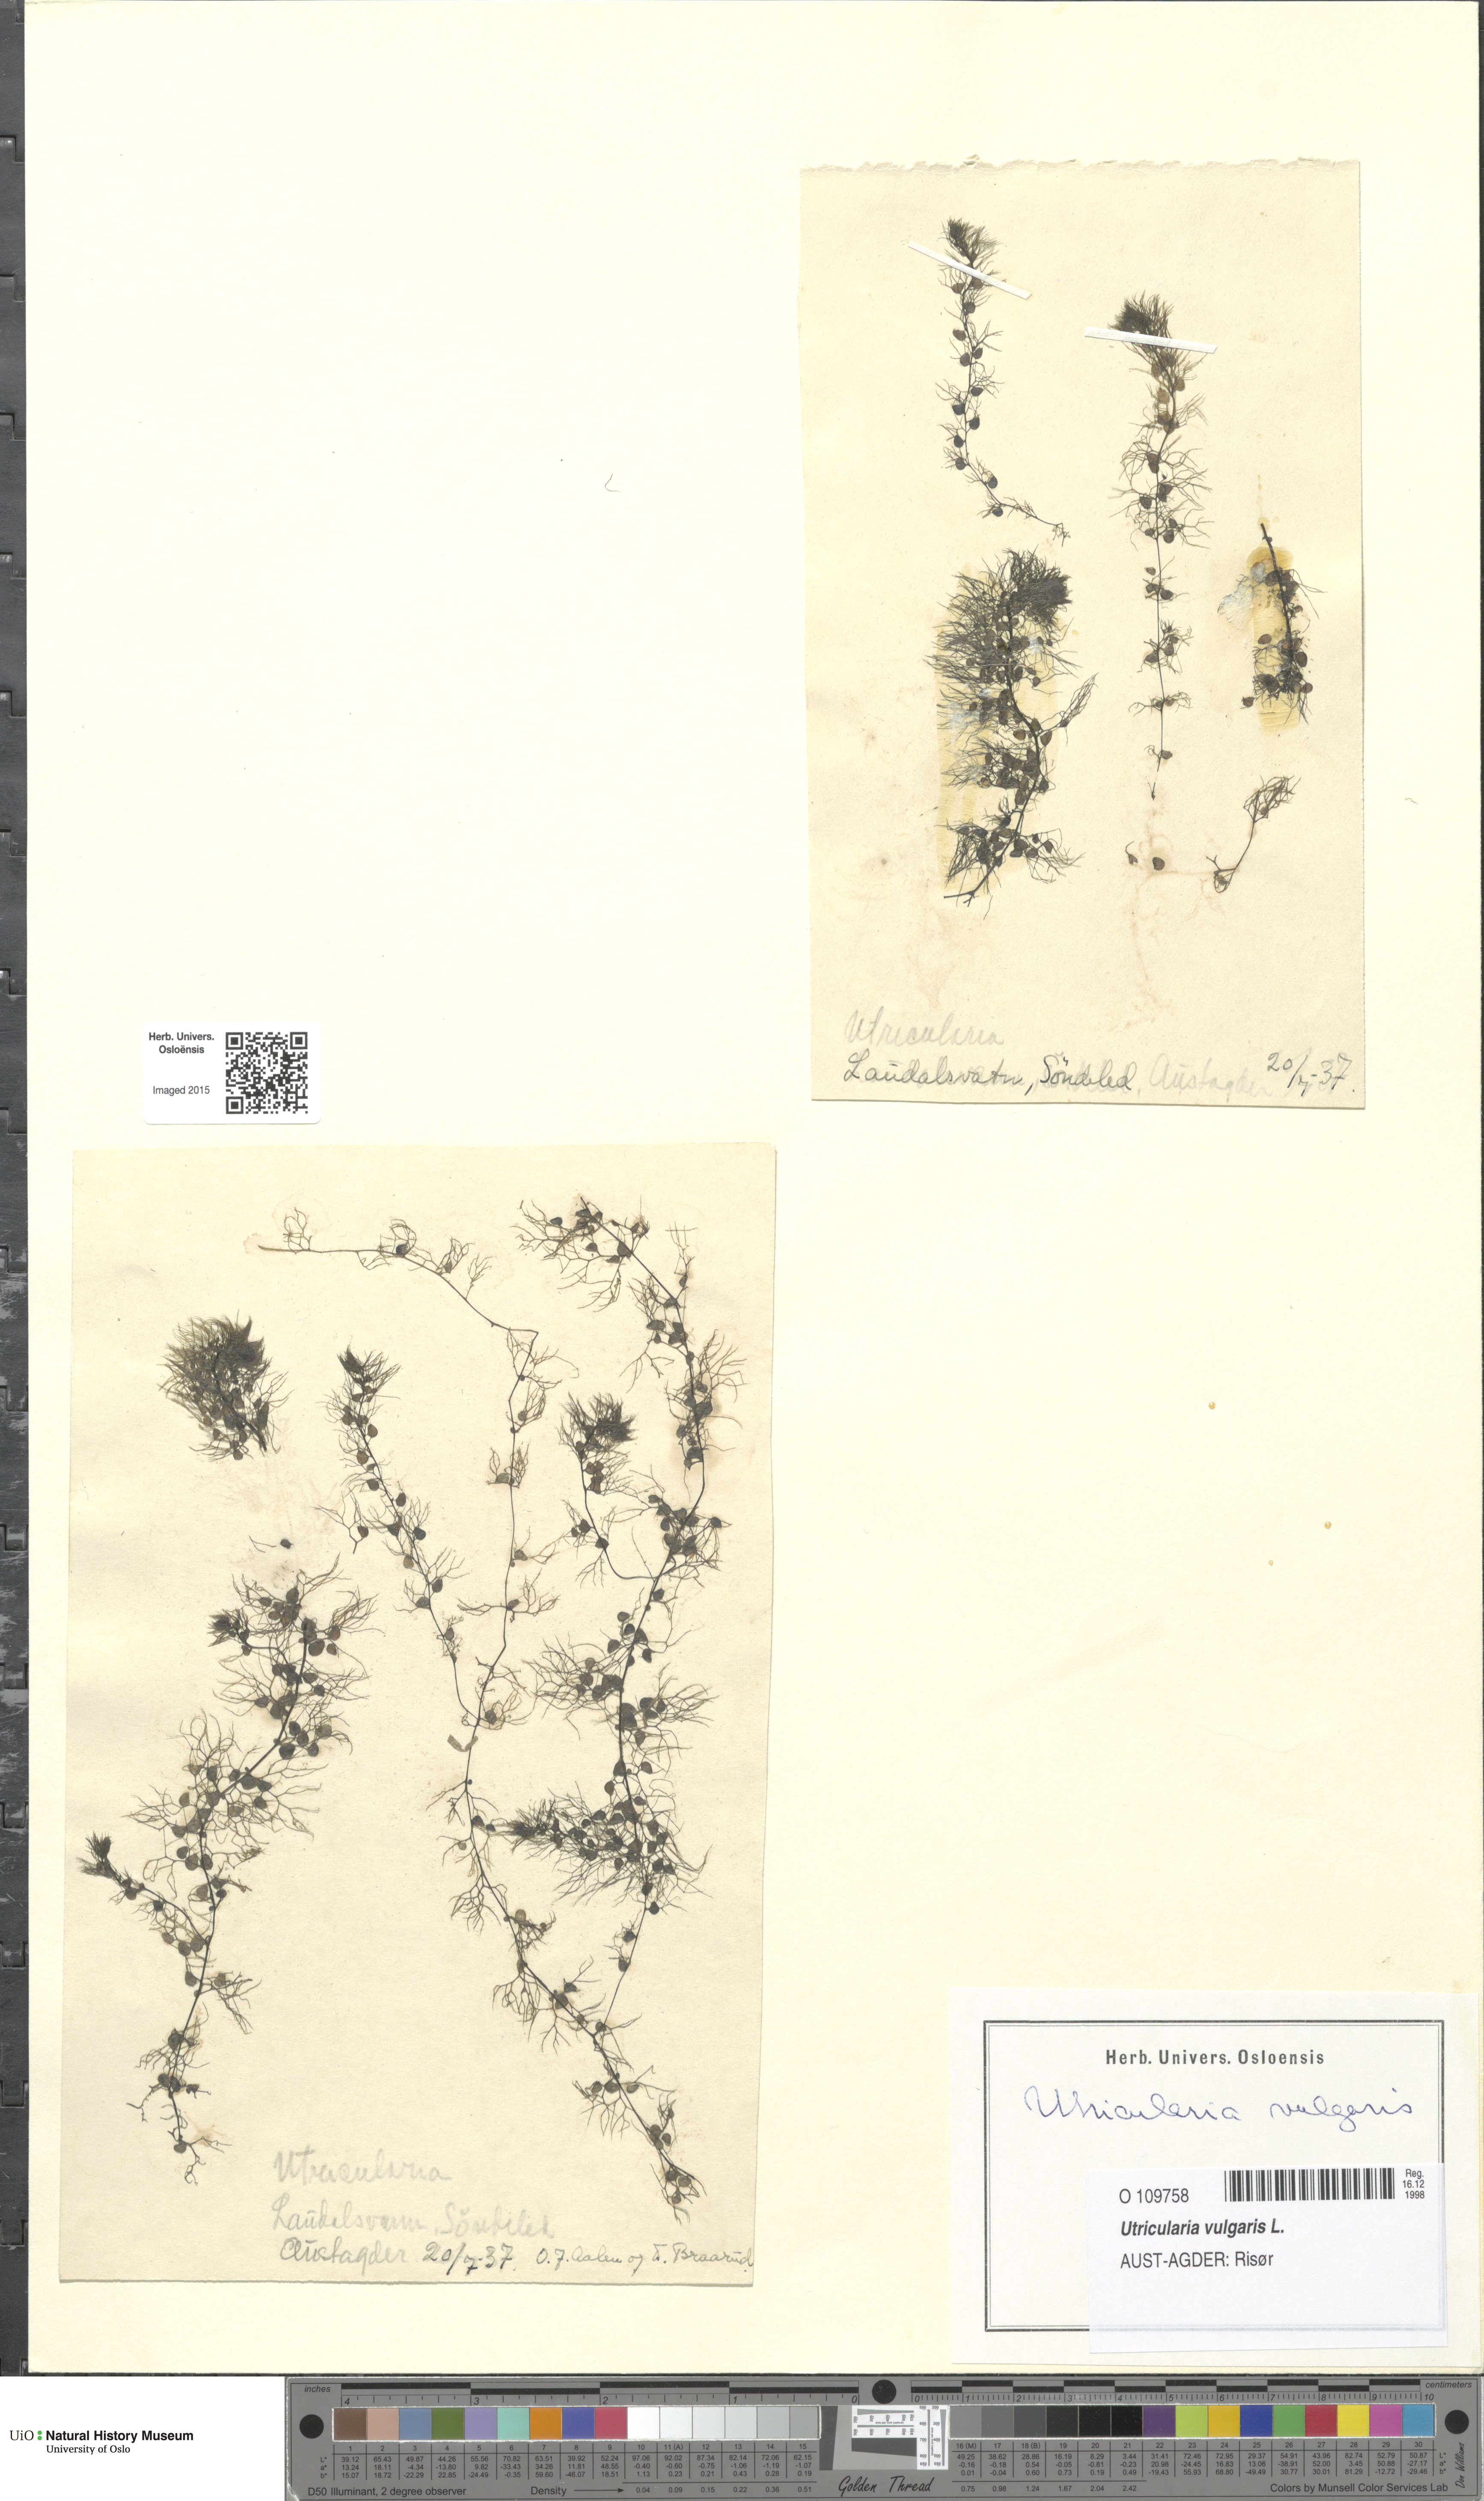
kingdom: Plantae
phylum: Tracheophyta
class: Magnoliopsida
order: Lamiales
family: Lentibulariaceae
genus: Utricularia
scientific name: Utricularia vulgaris
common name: Greater bladderwort
